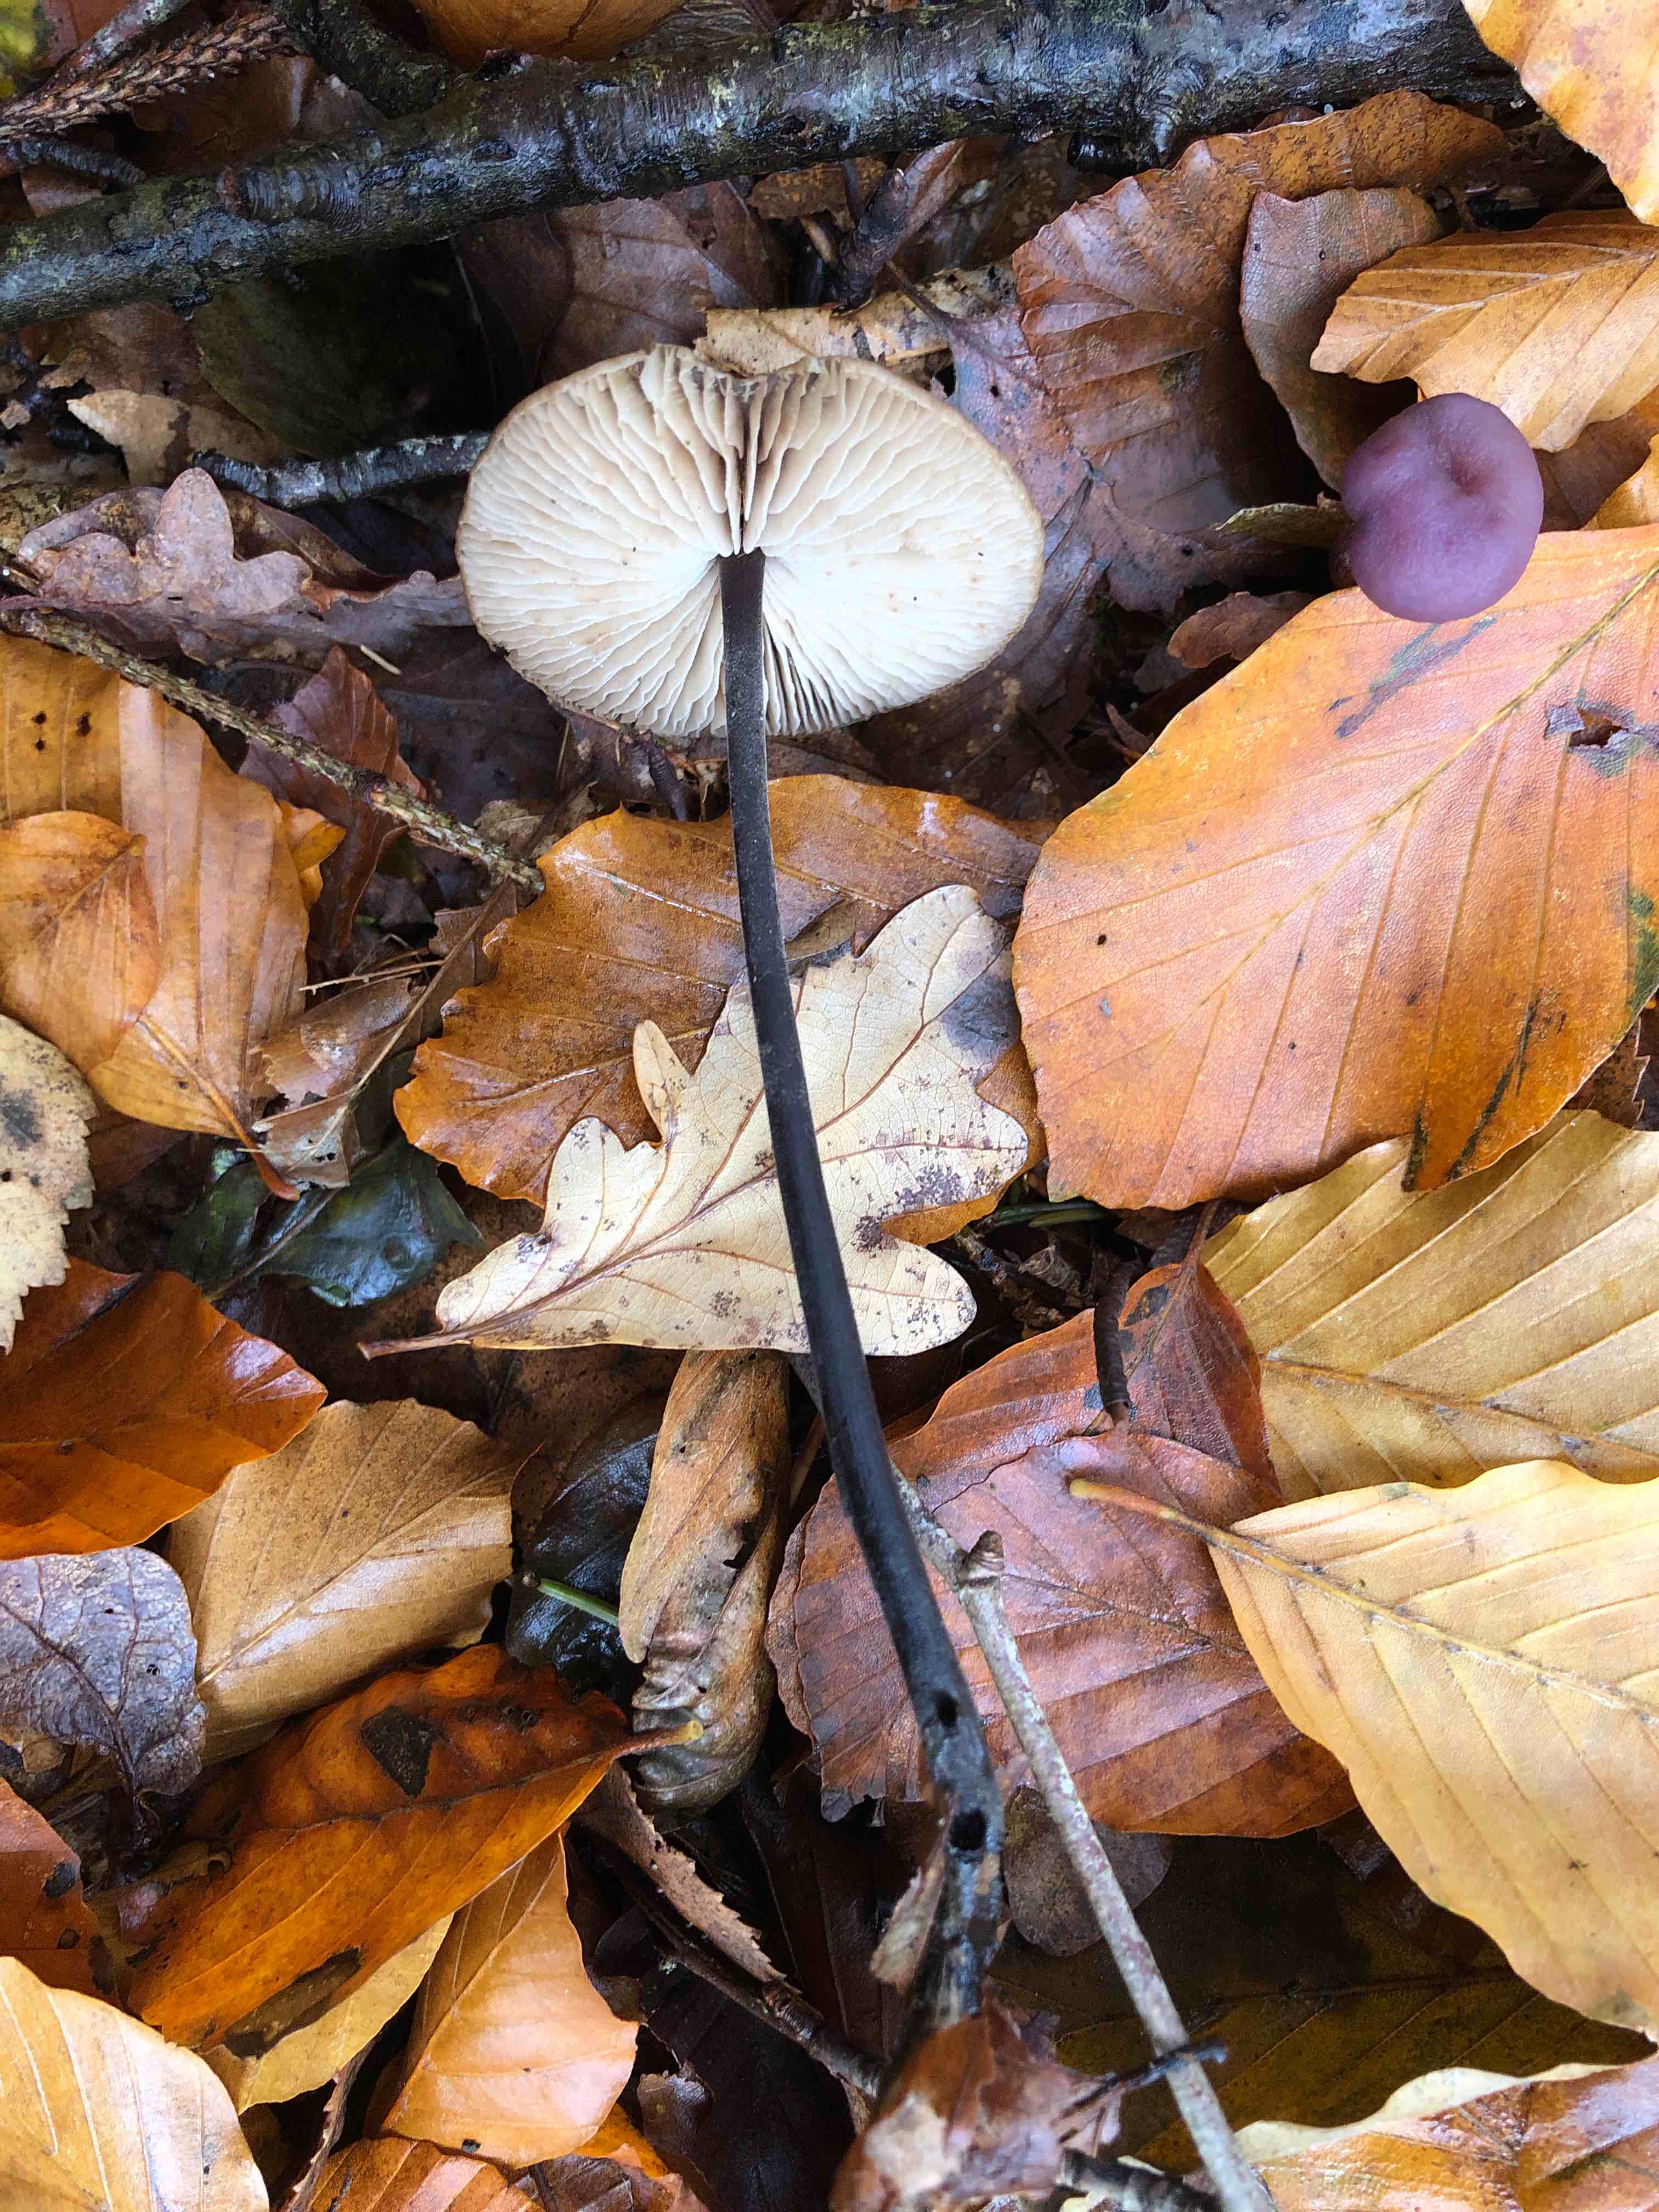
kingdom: Fungi
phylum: Basidiomycota
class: Agaricomycetes
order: Agaricales
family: Omphalotaceae
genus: Mycetinis
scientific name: Mycetinis alliaceus
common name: stor løghat
